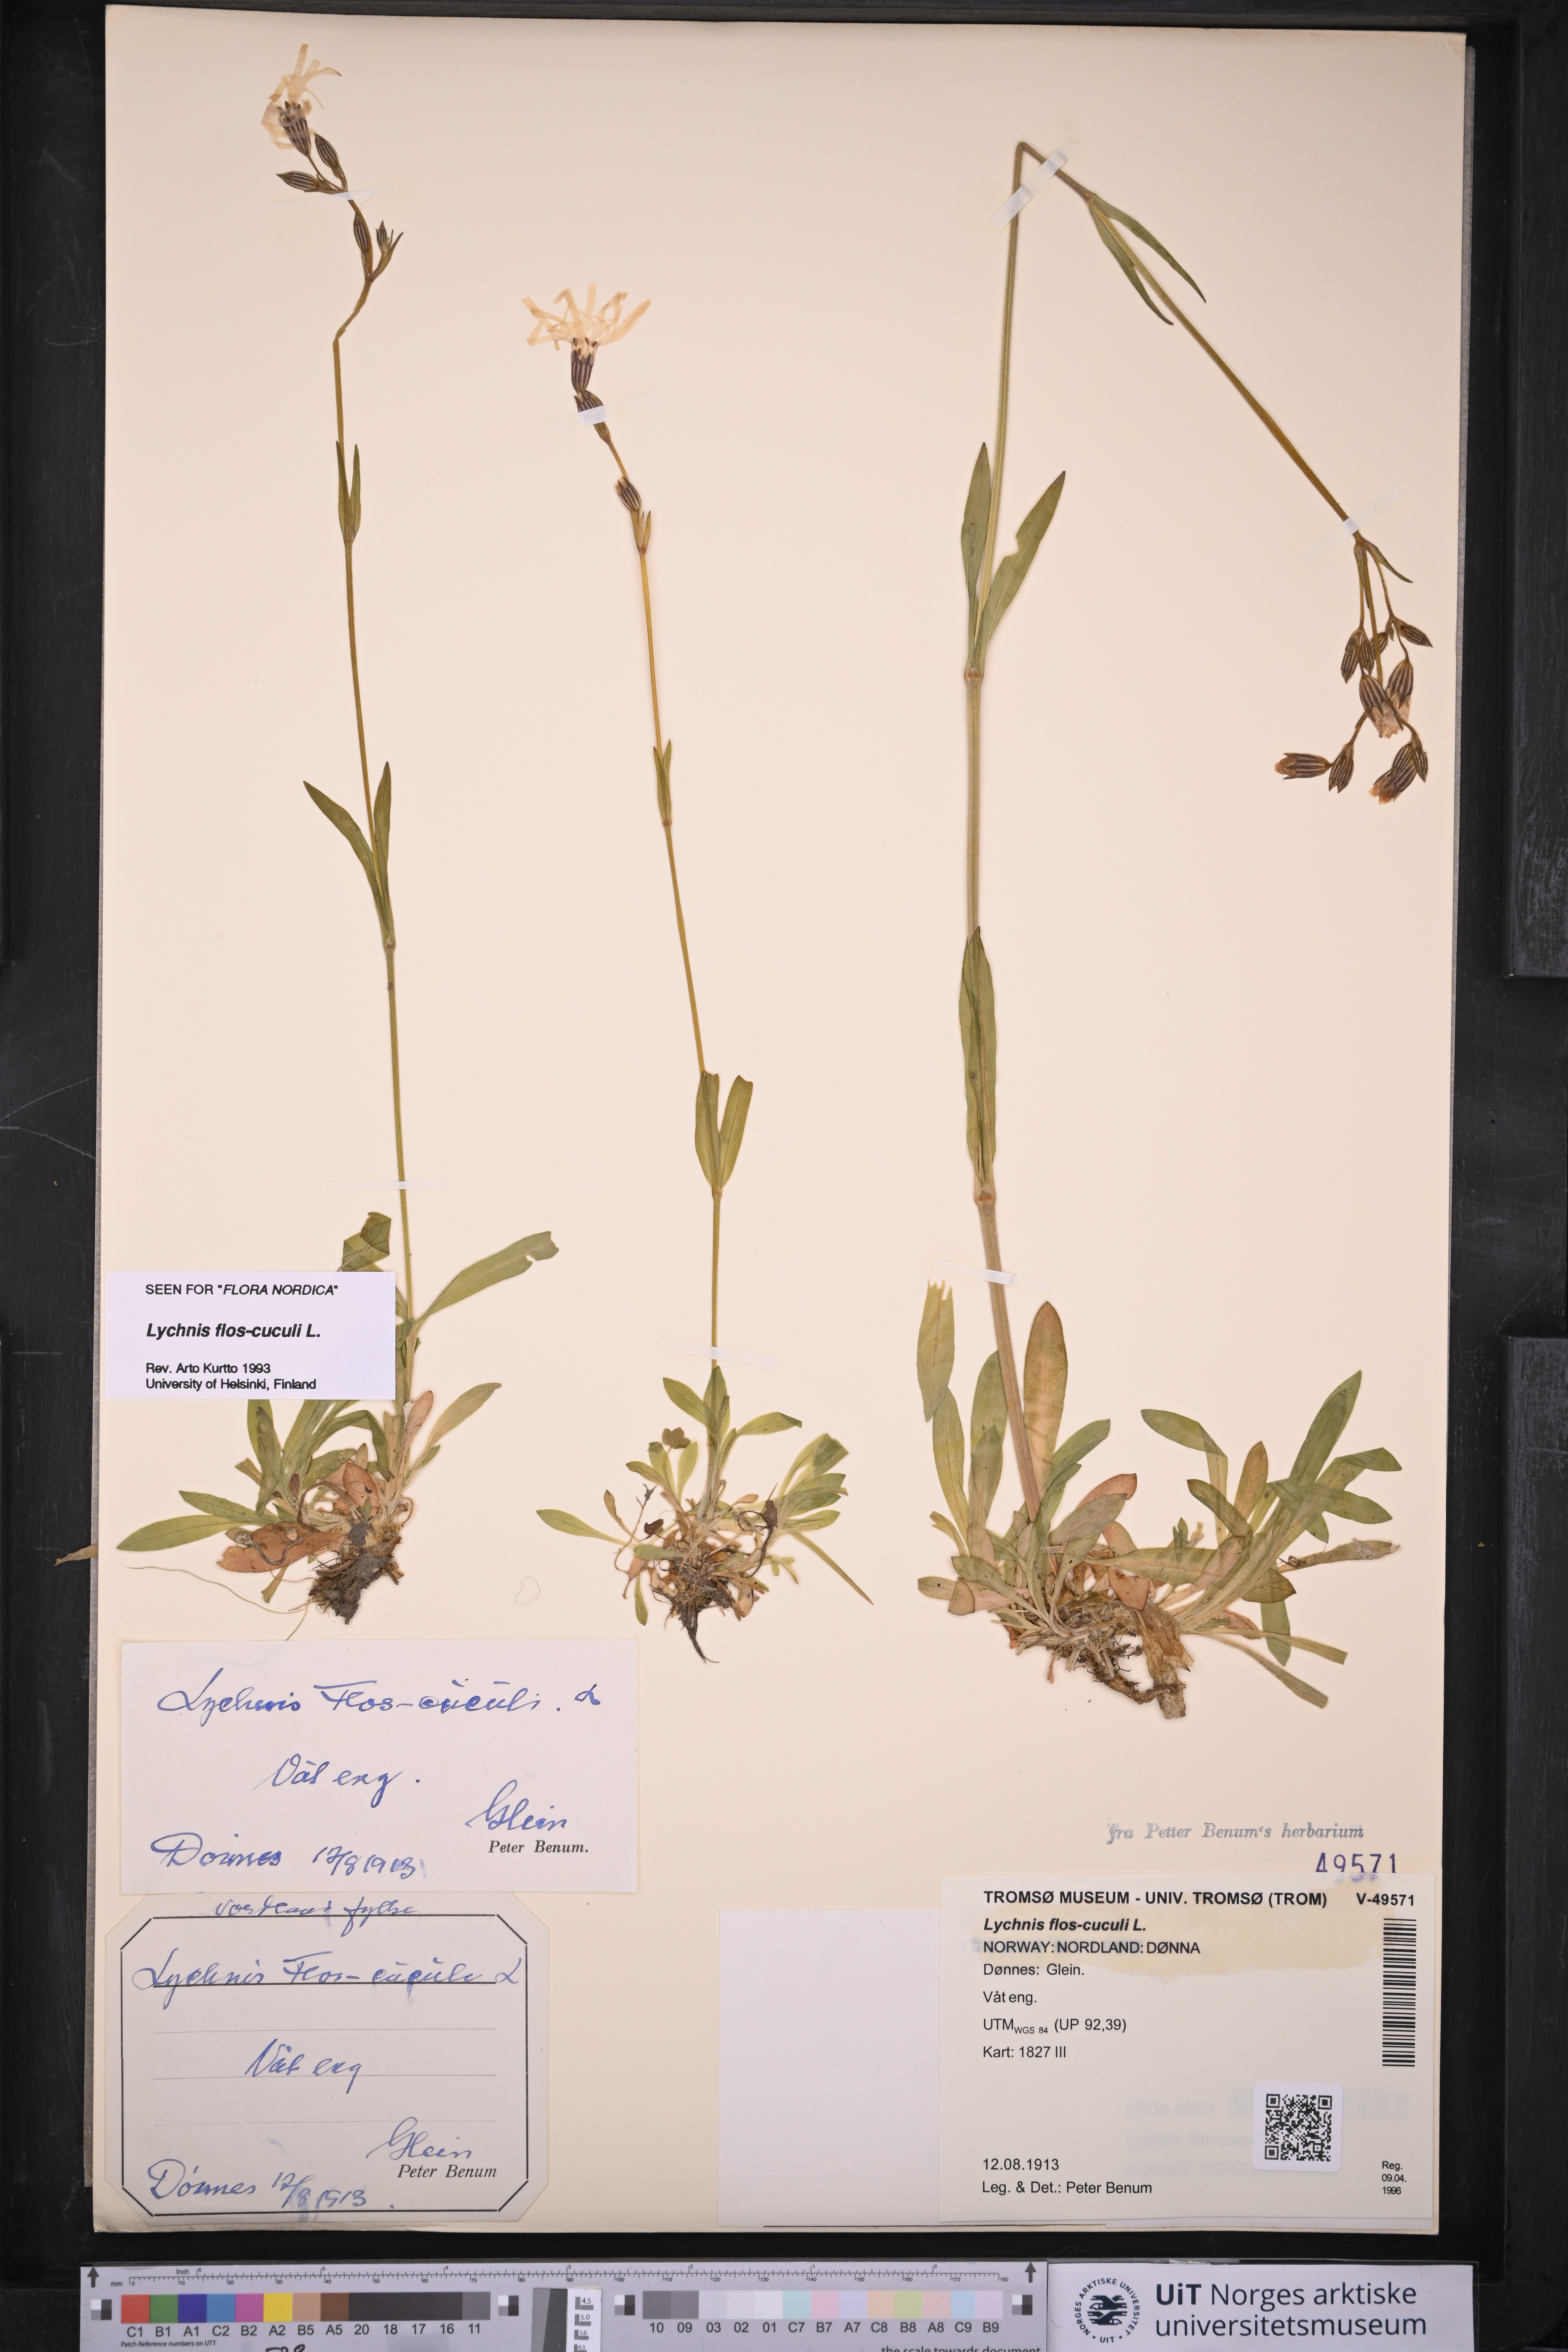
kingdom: Plantae
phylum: Tracheophyta
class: Magnoliopsida
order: Caryophyllales
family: Caryophyllaceae
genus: Silene
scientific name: Silene flos-cuculi
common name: Ragged-robin
